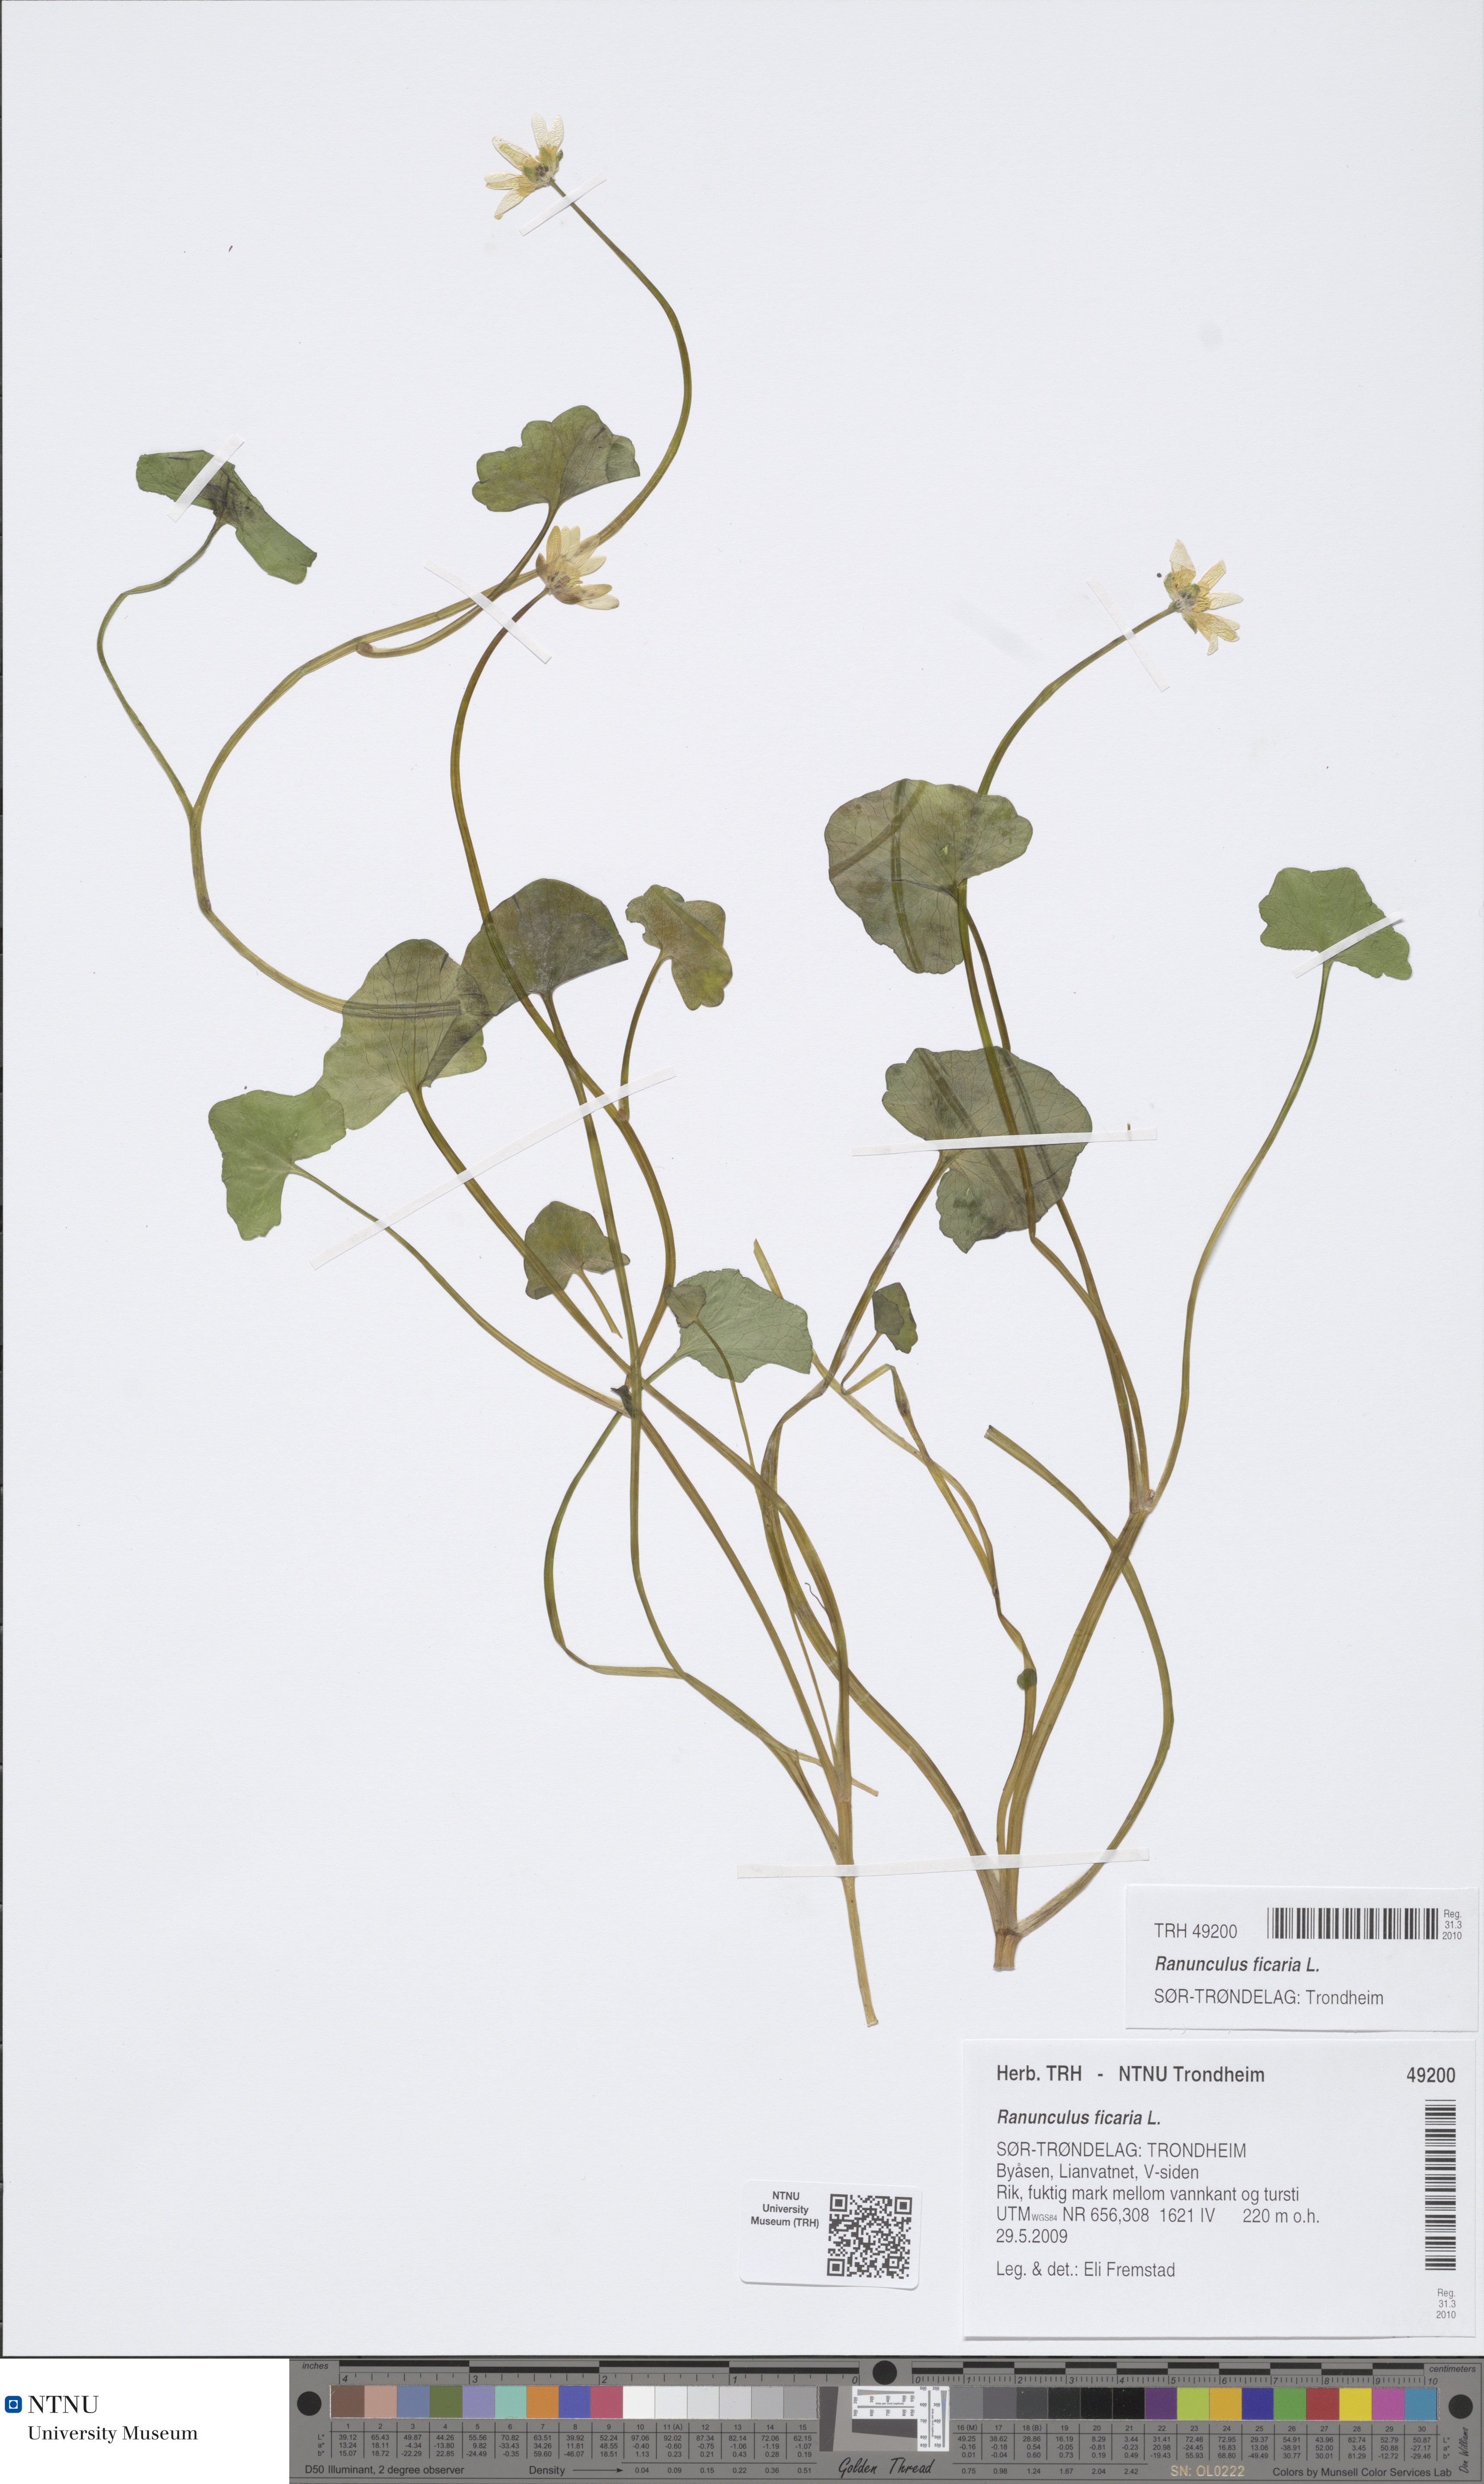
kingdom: Plantae
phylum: Tracheophyta
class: Magnoliopsida
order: Ranunculales
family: Ranunculaceae
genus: Ficaria
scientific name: Ficaria verna
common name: Lesser celandine
